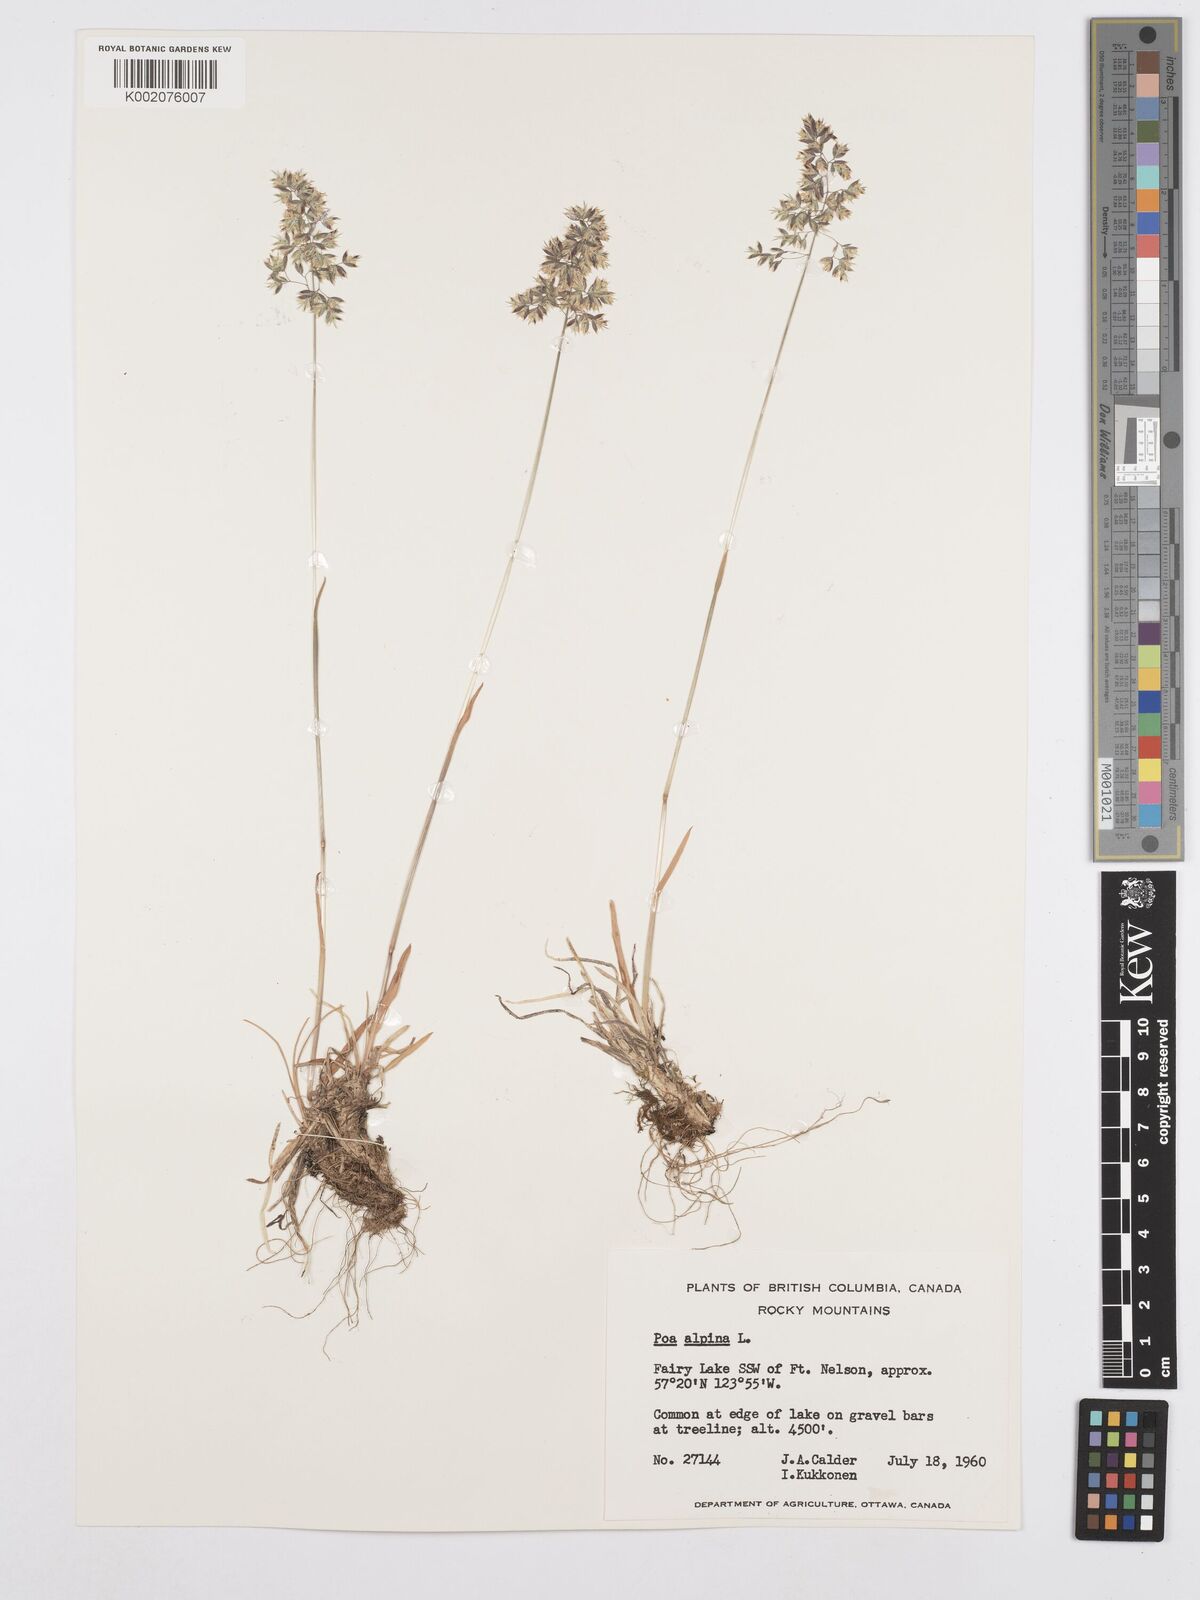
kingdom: Plantae
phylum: Tracheophyta
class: Liliopsida
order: Poales
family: Poaceae
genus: Poa
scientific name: Poa alpina
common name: Alpine bluegrass
